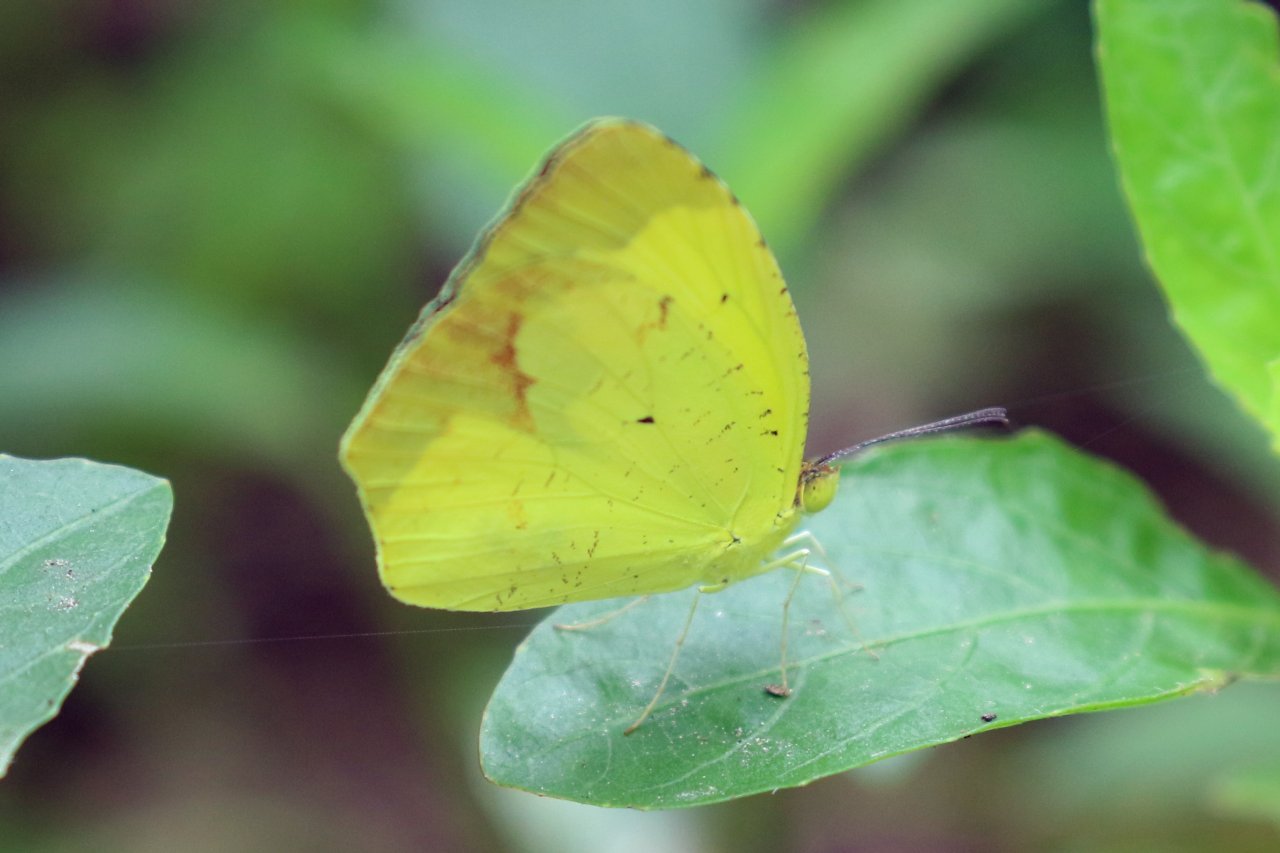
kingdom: Animalia
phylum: Arthropoda
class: Insecta
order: Lepidoptera
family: Pieridae
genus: Eurema
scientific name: Eurema boisduvaliana
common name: Boisduval's Yellow
